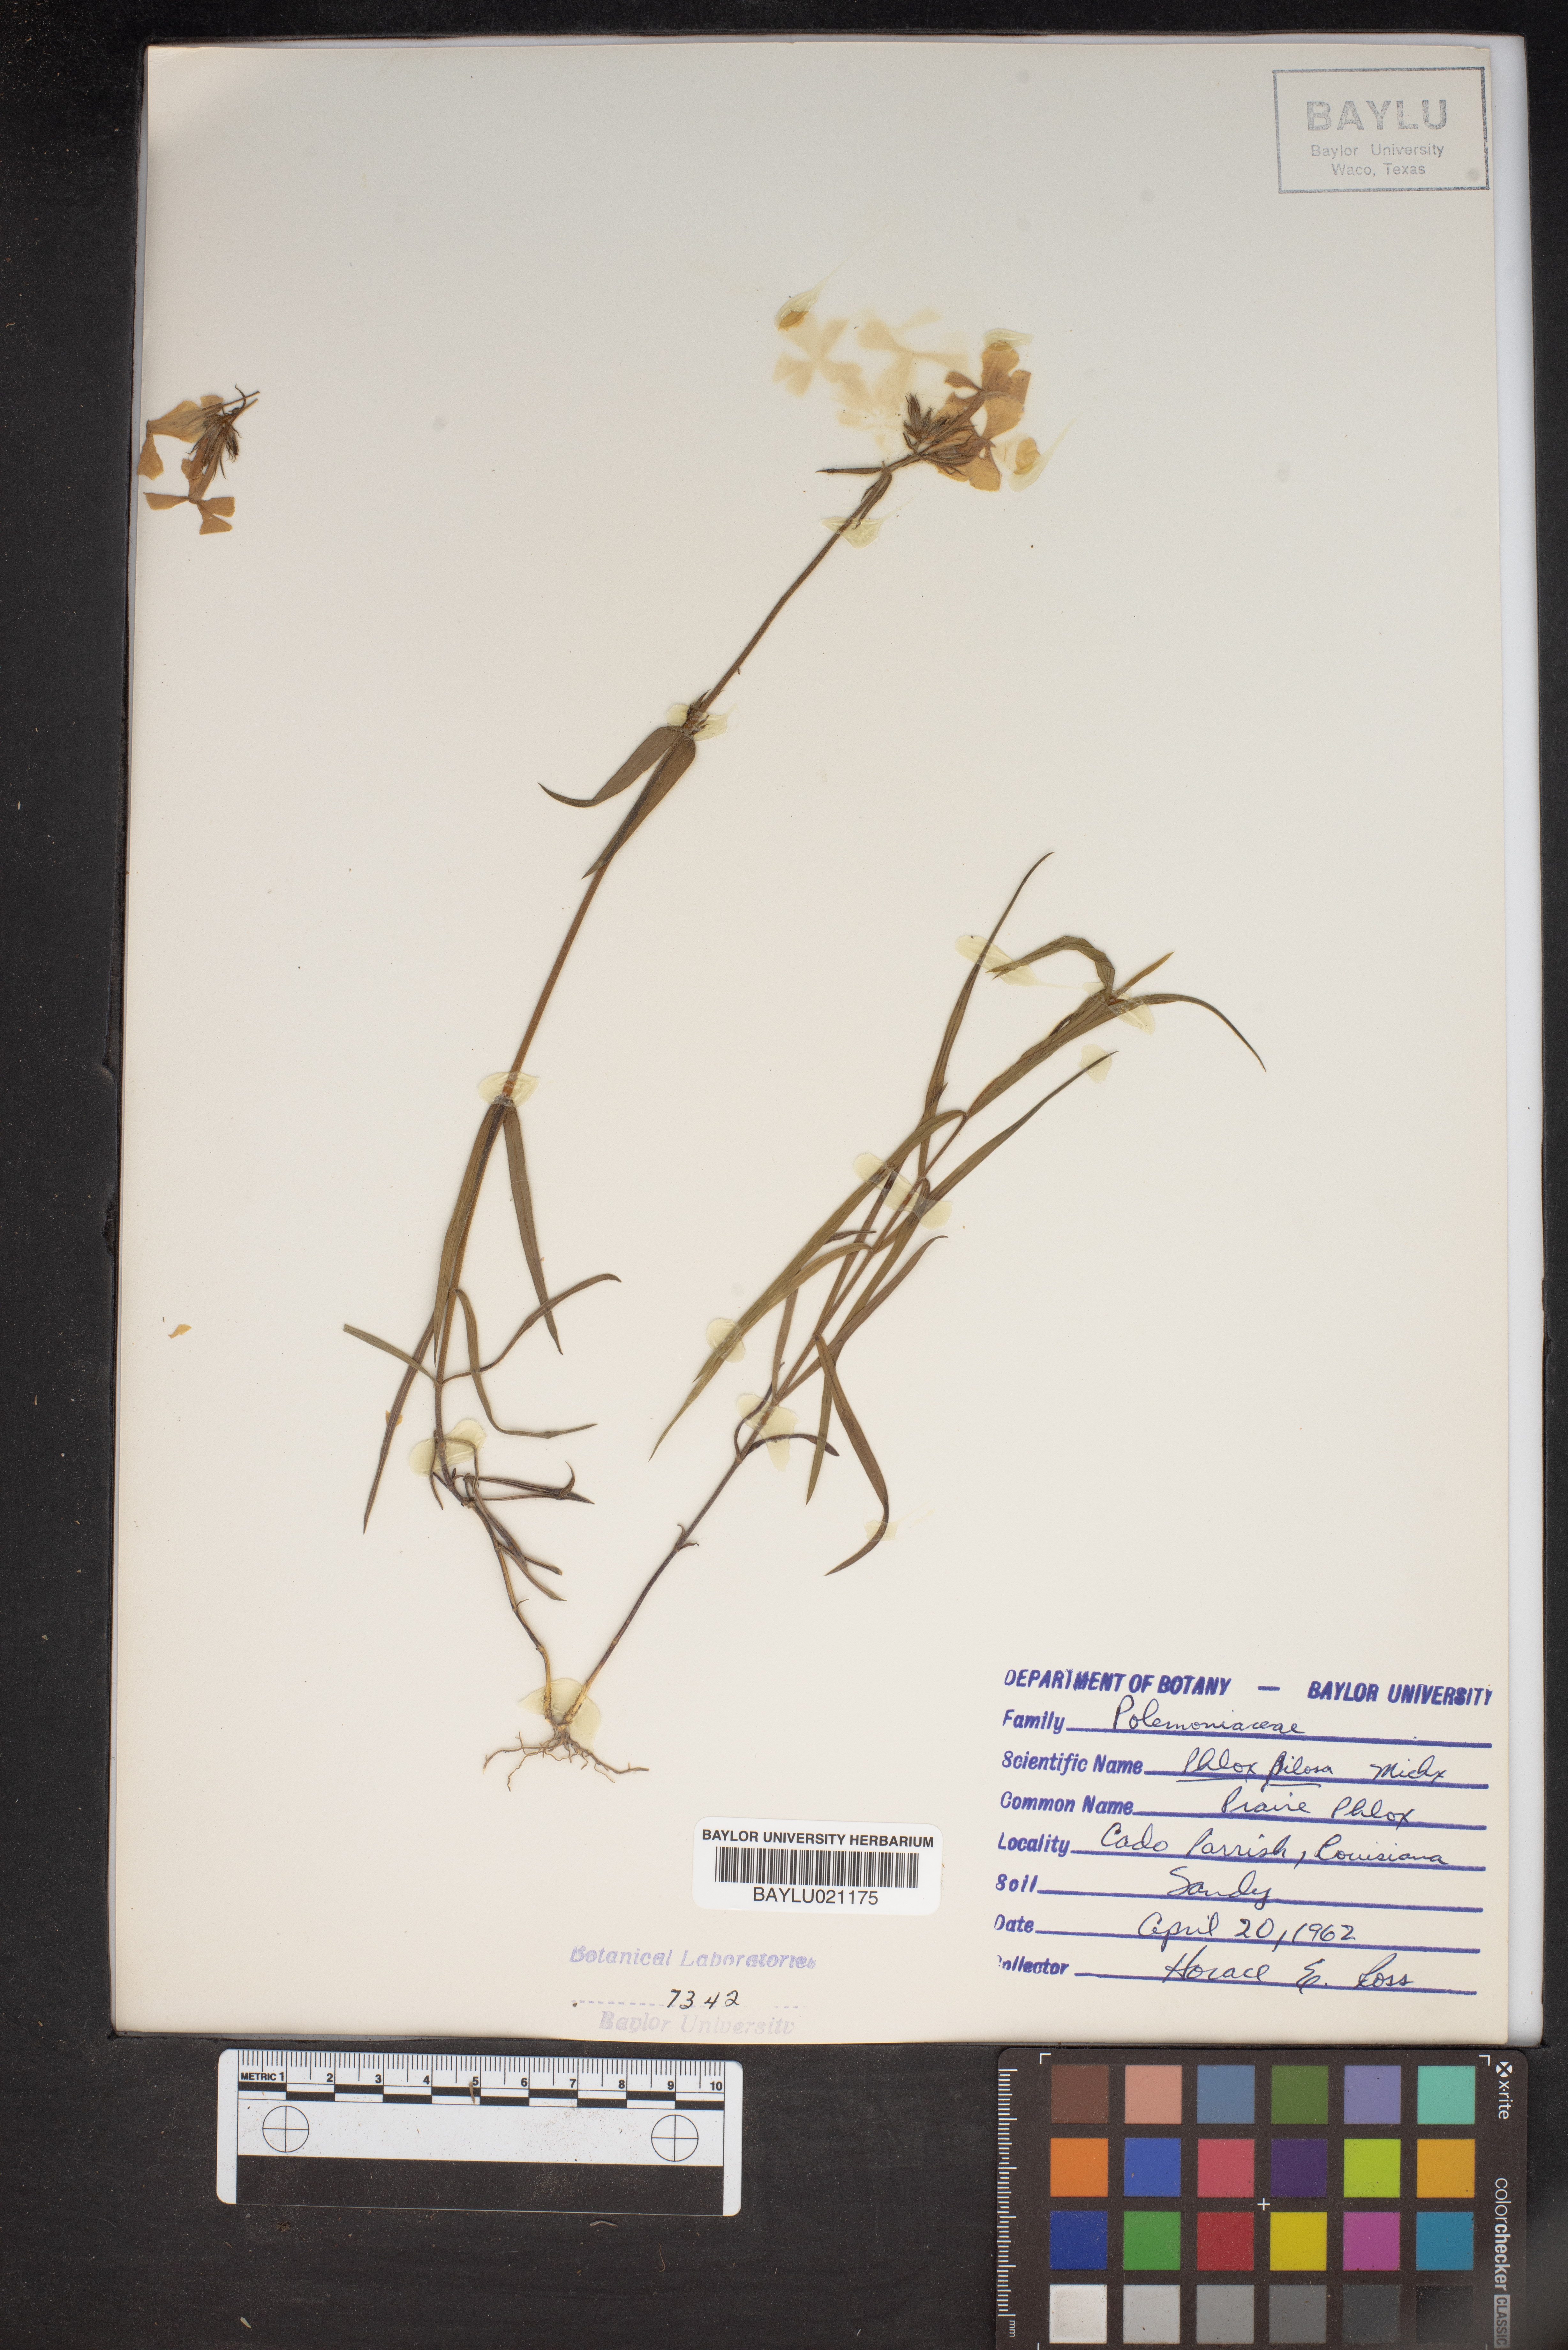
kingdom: Plantae
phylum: Tracheophyta
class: Magnoliopsida
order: Ericales
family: Polemoniaceae
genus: Phlox
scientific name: Phlox pilosa
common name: Prairie phlox
